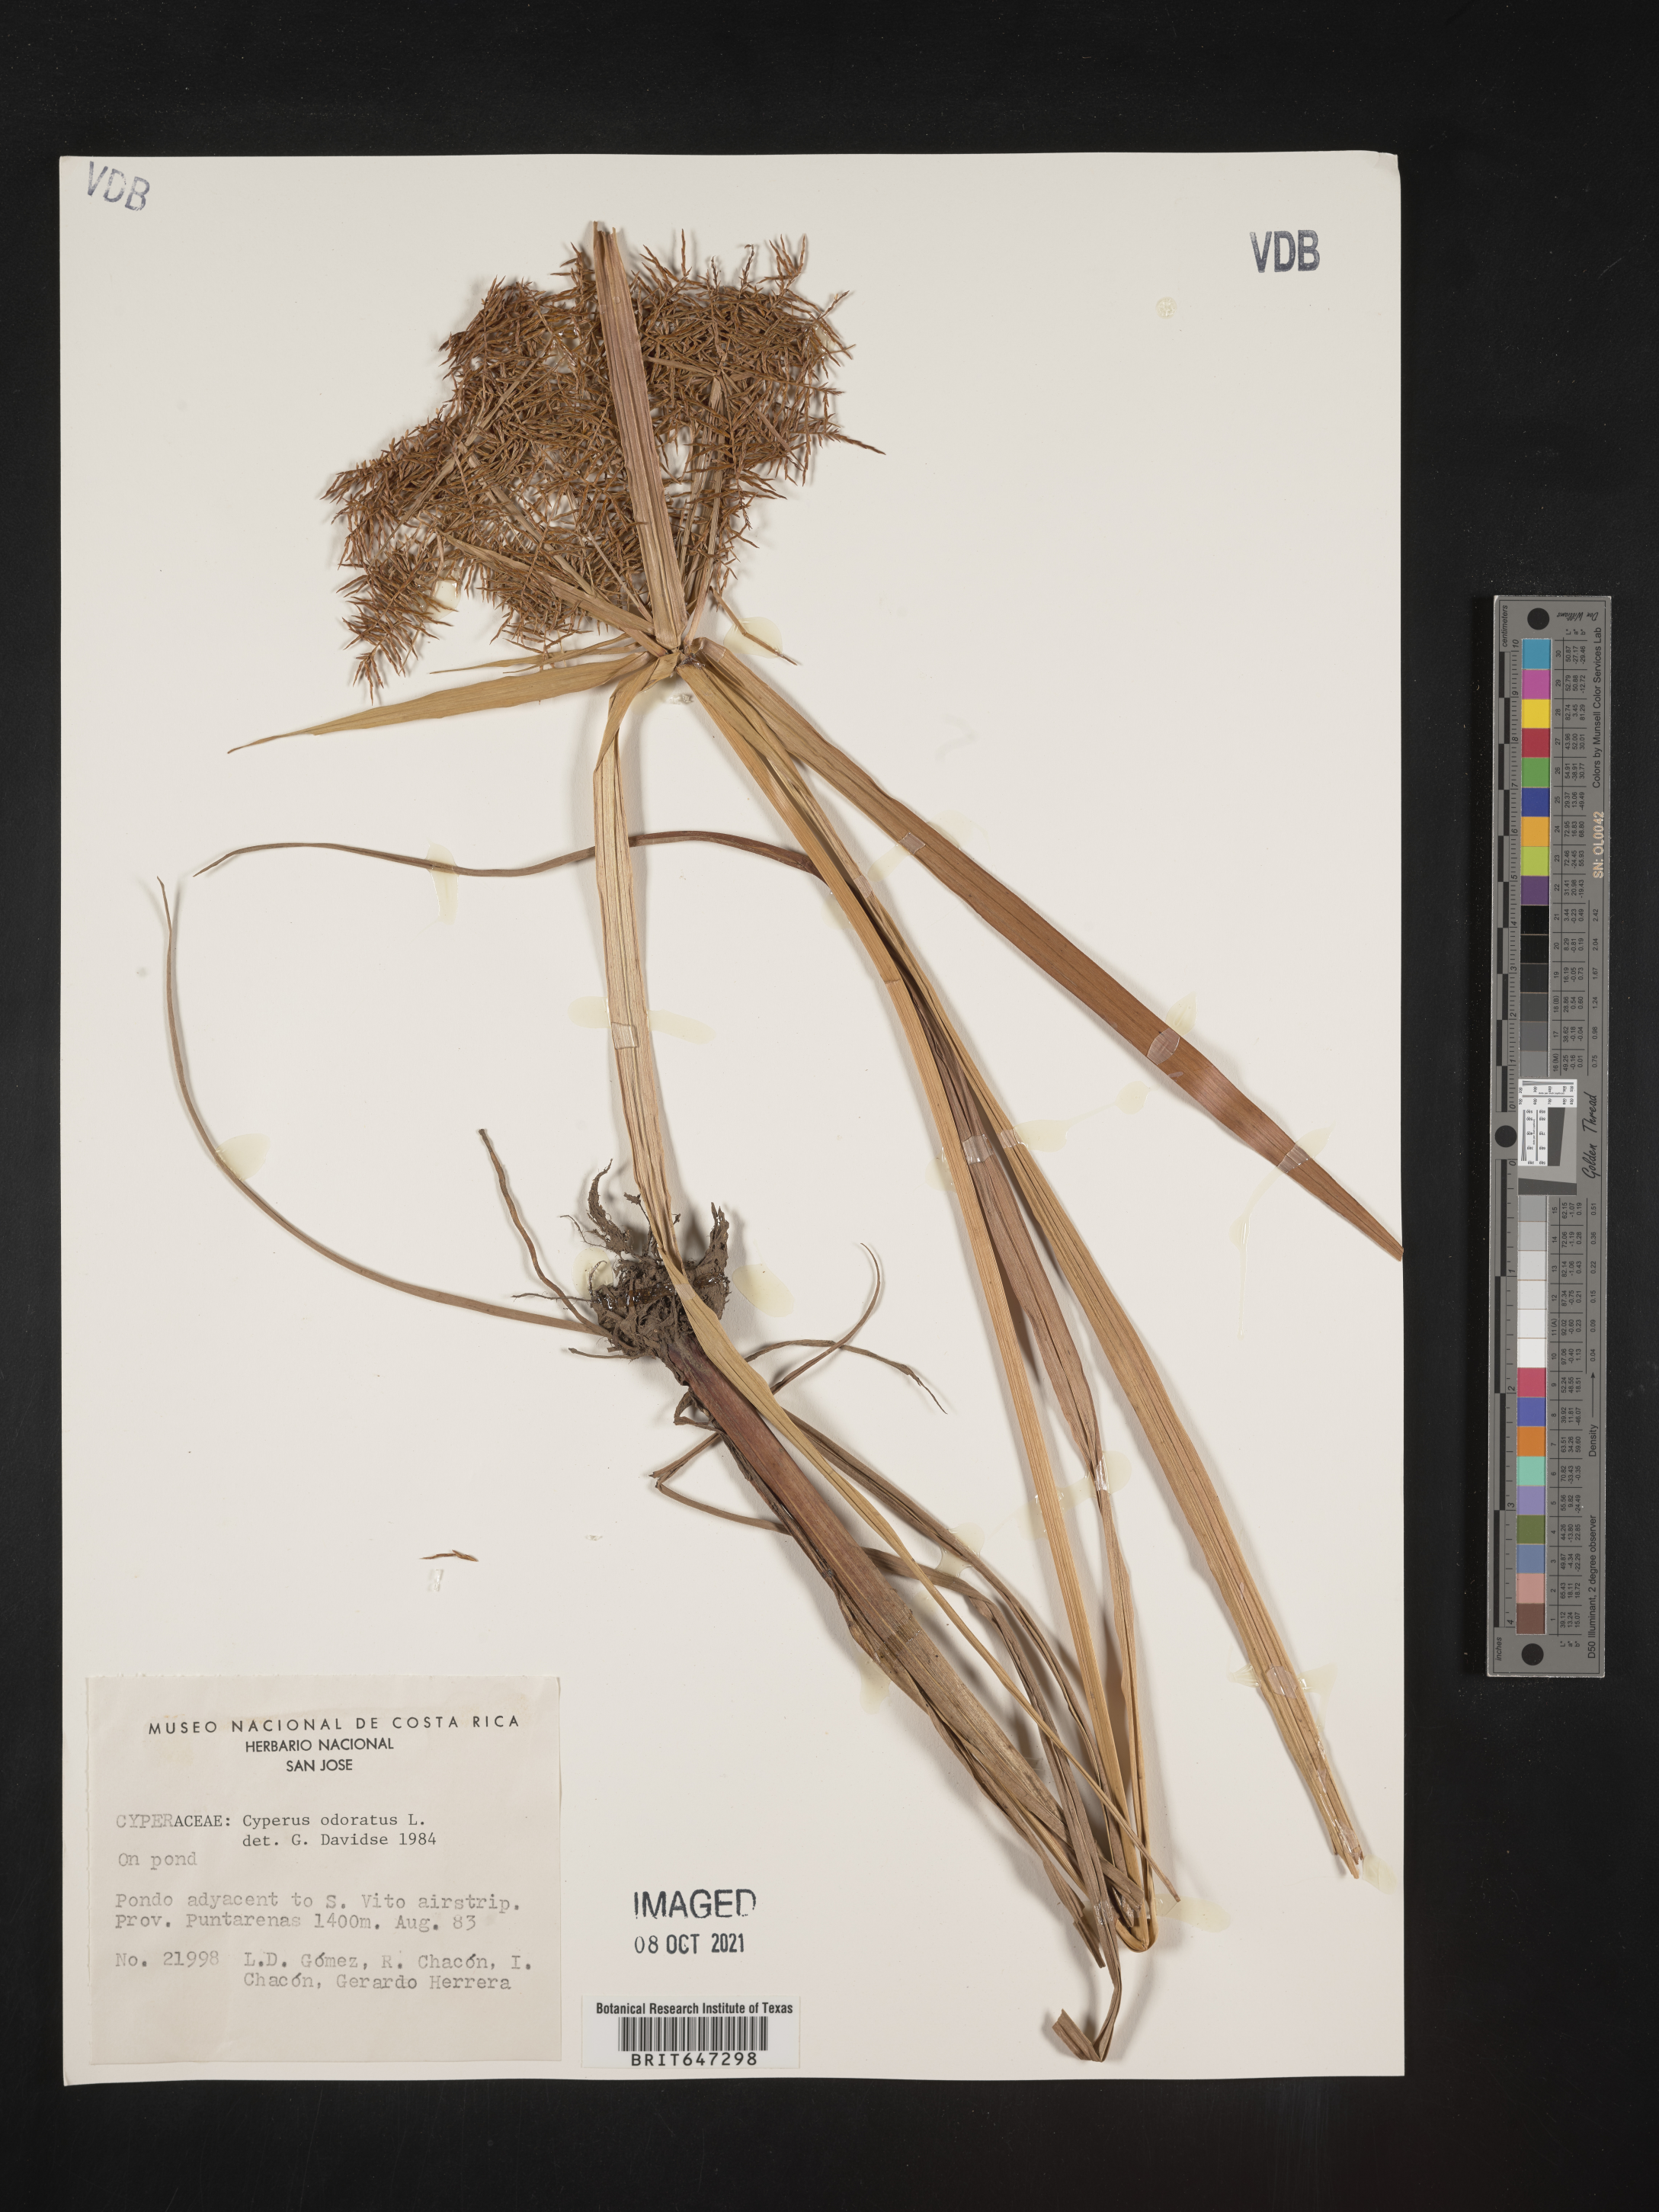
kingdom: Plantae
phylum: Tracheophyta
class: Liliopsida
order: Poales
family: Cyperaceae
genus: Cyperus
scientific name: Cyperus odoratus
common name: Fragrant flatsedge
